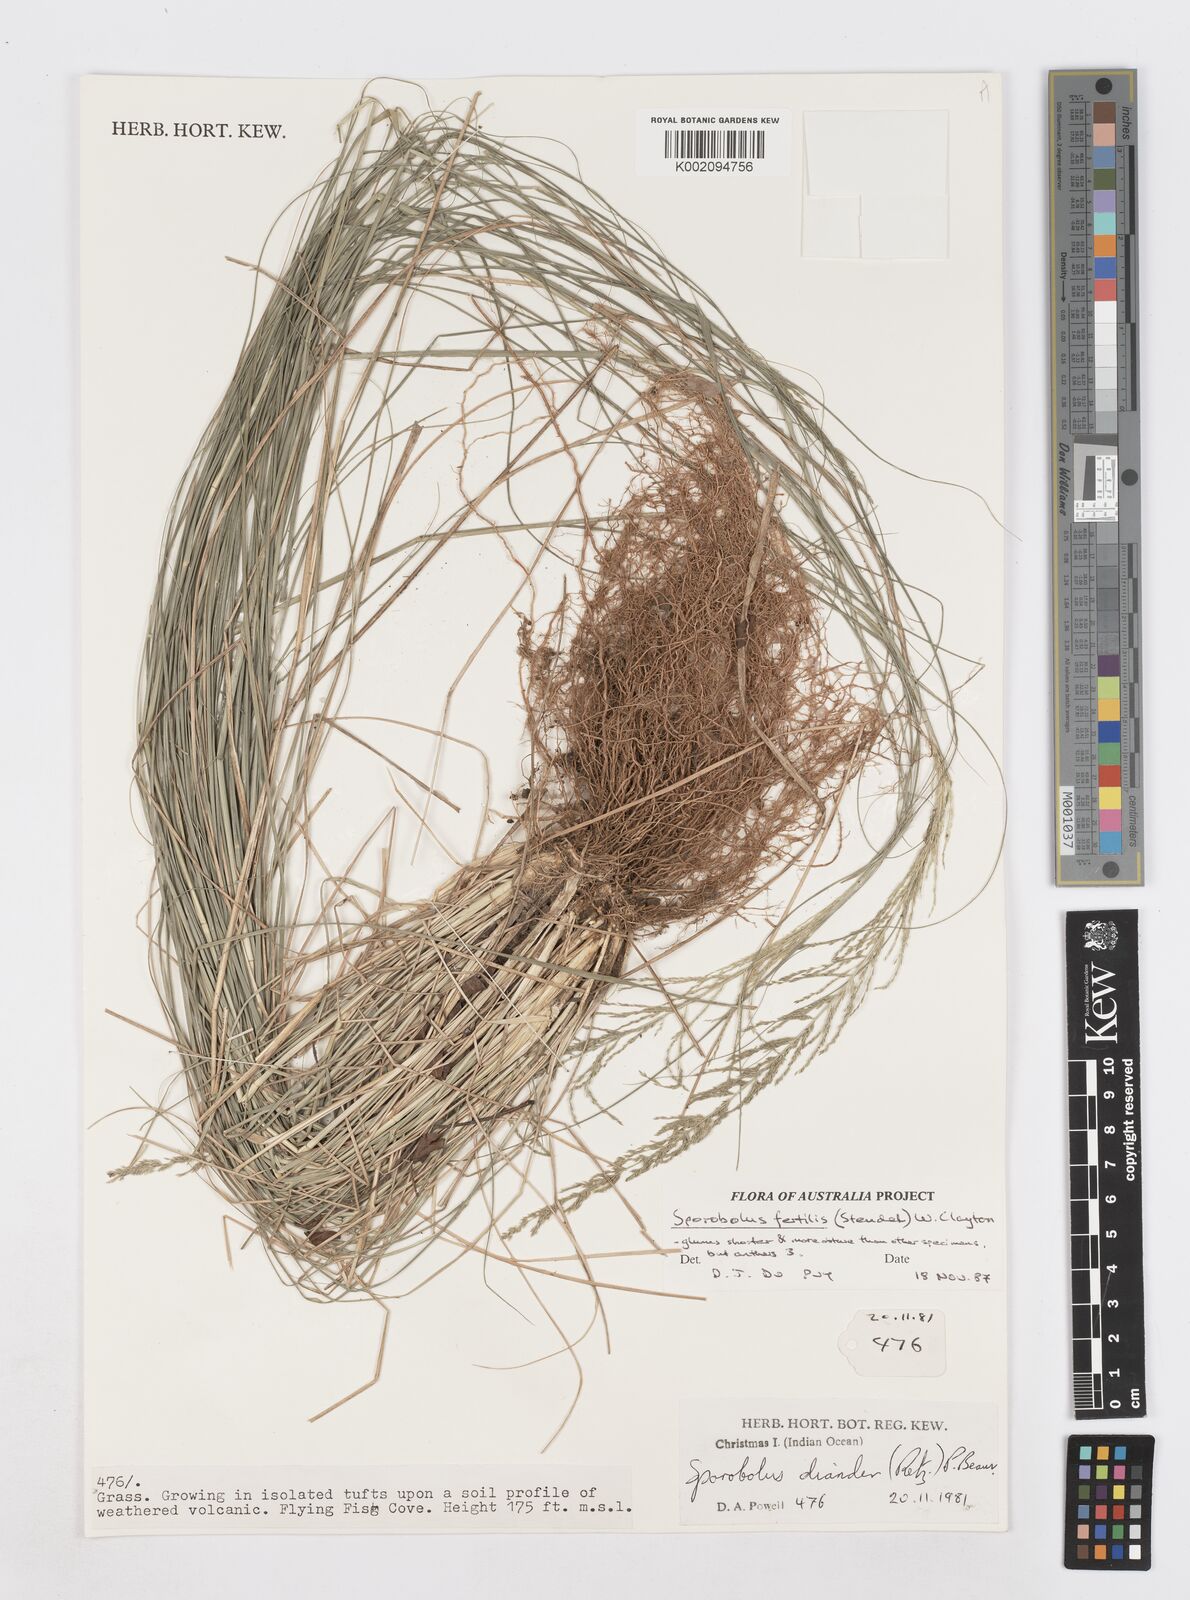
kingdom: Plantae
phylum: Tracheophyta
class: Liliopsida
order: Poales
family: Poaceae
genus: Sporobolus
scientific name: Sporobolus fertilis
